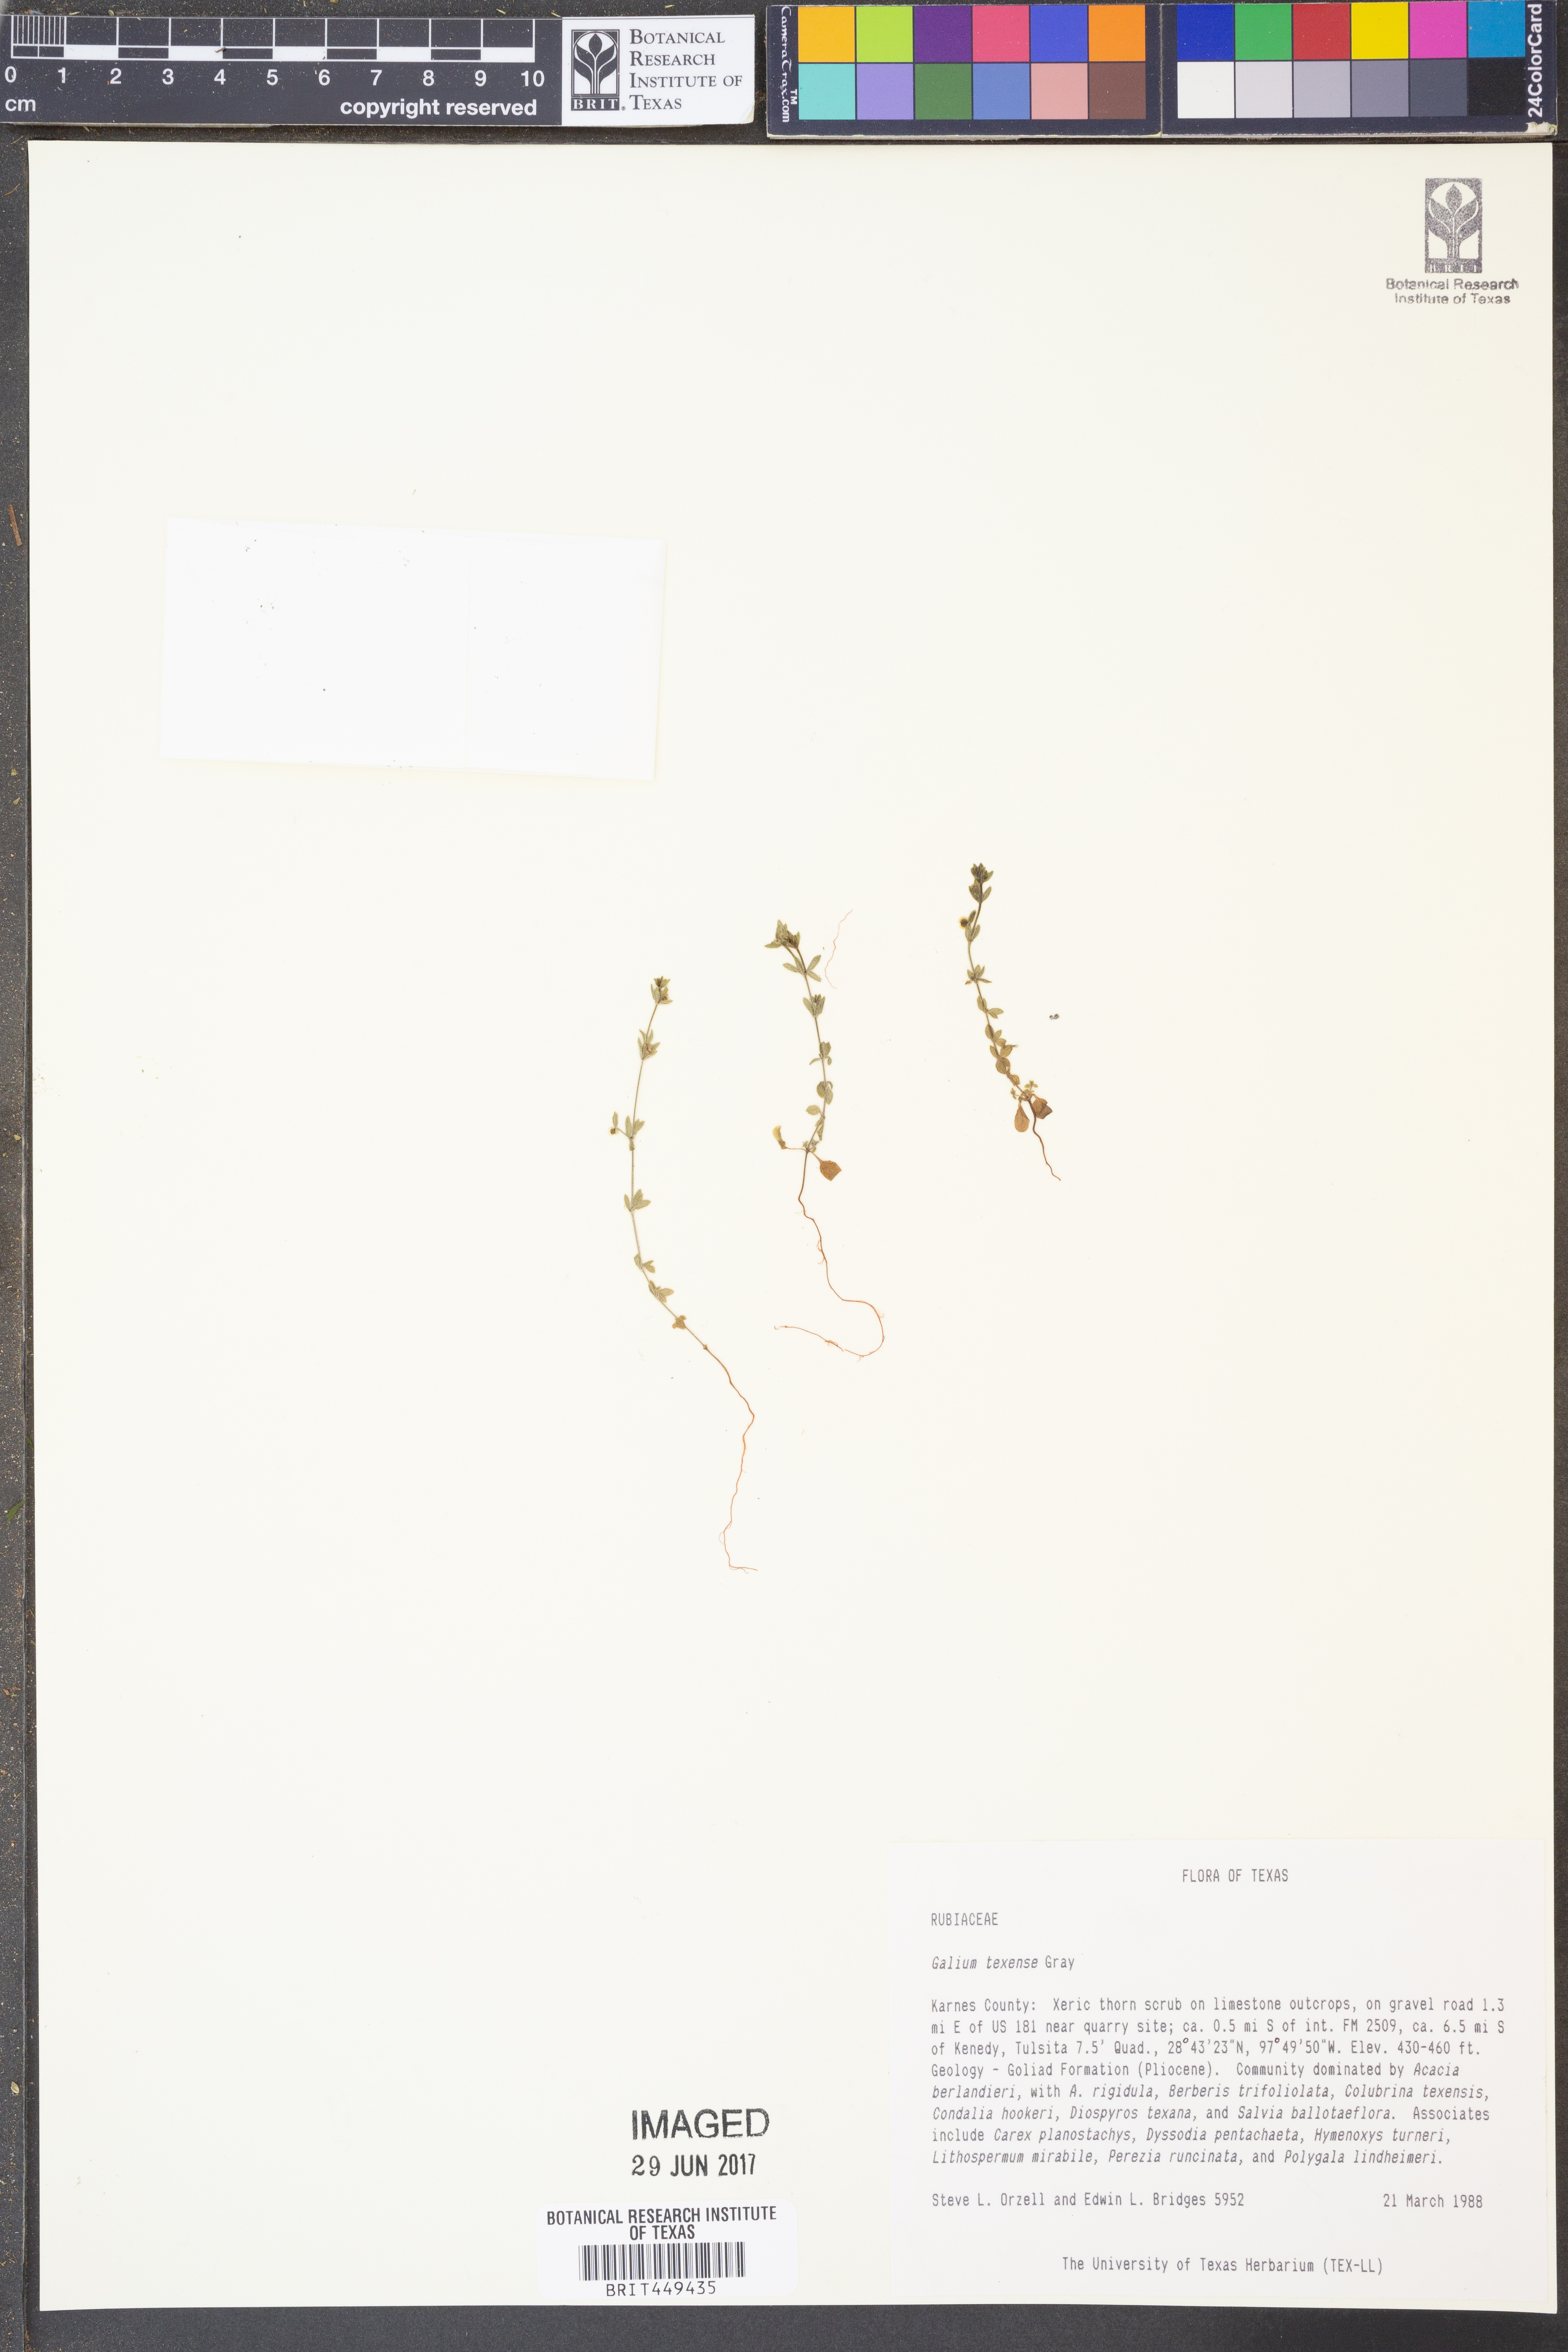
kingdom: Plantae
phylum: Tracheophyta
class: Magnoliopsida
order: Gentianales
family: Rubiaceae
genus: Galium
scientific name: Galium texense
